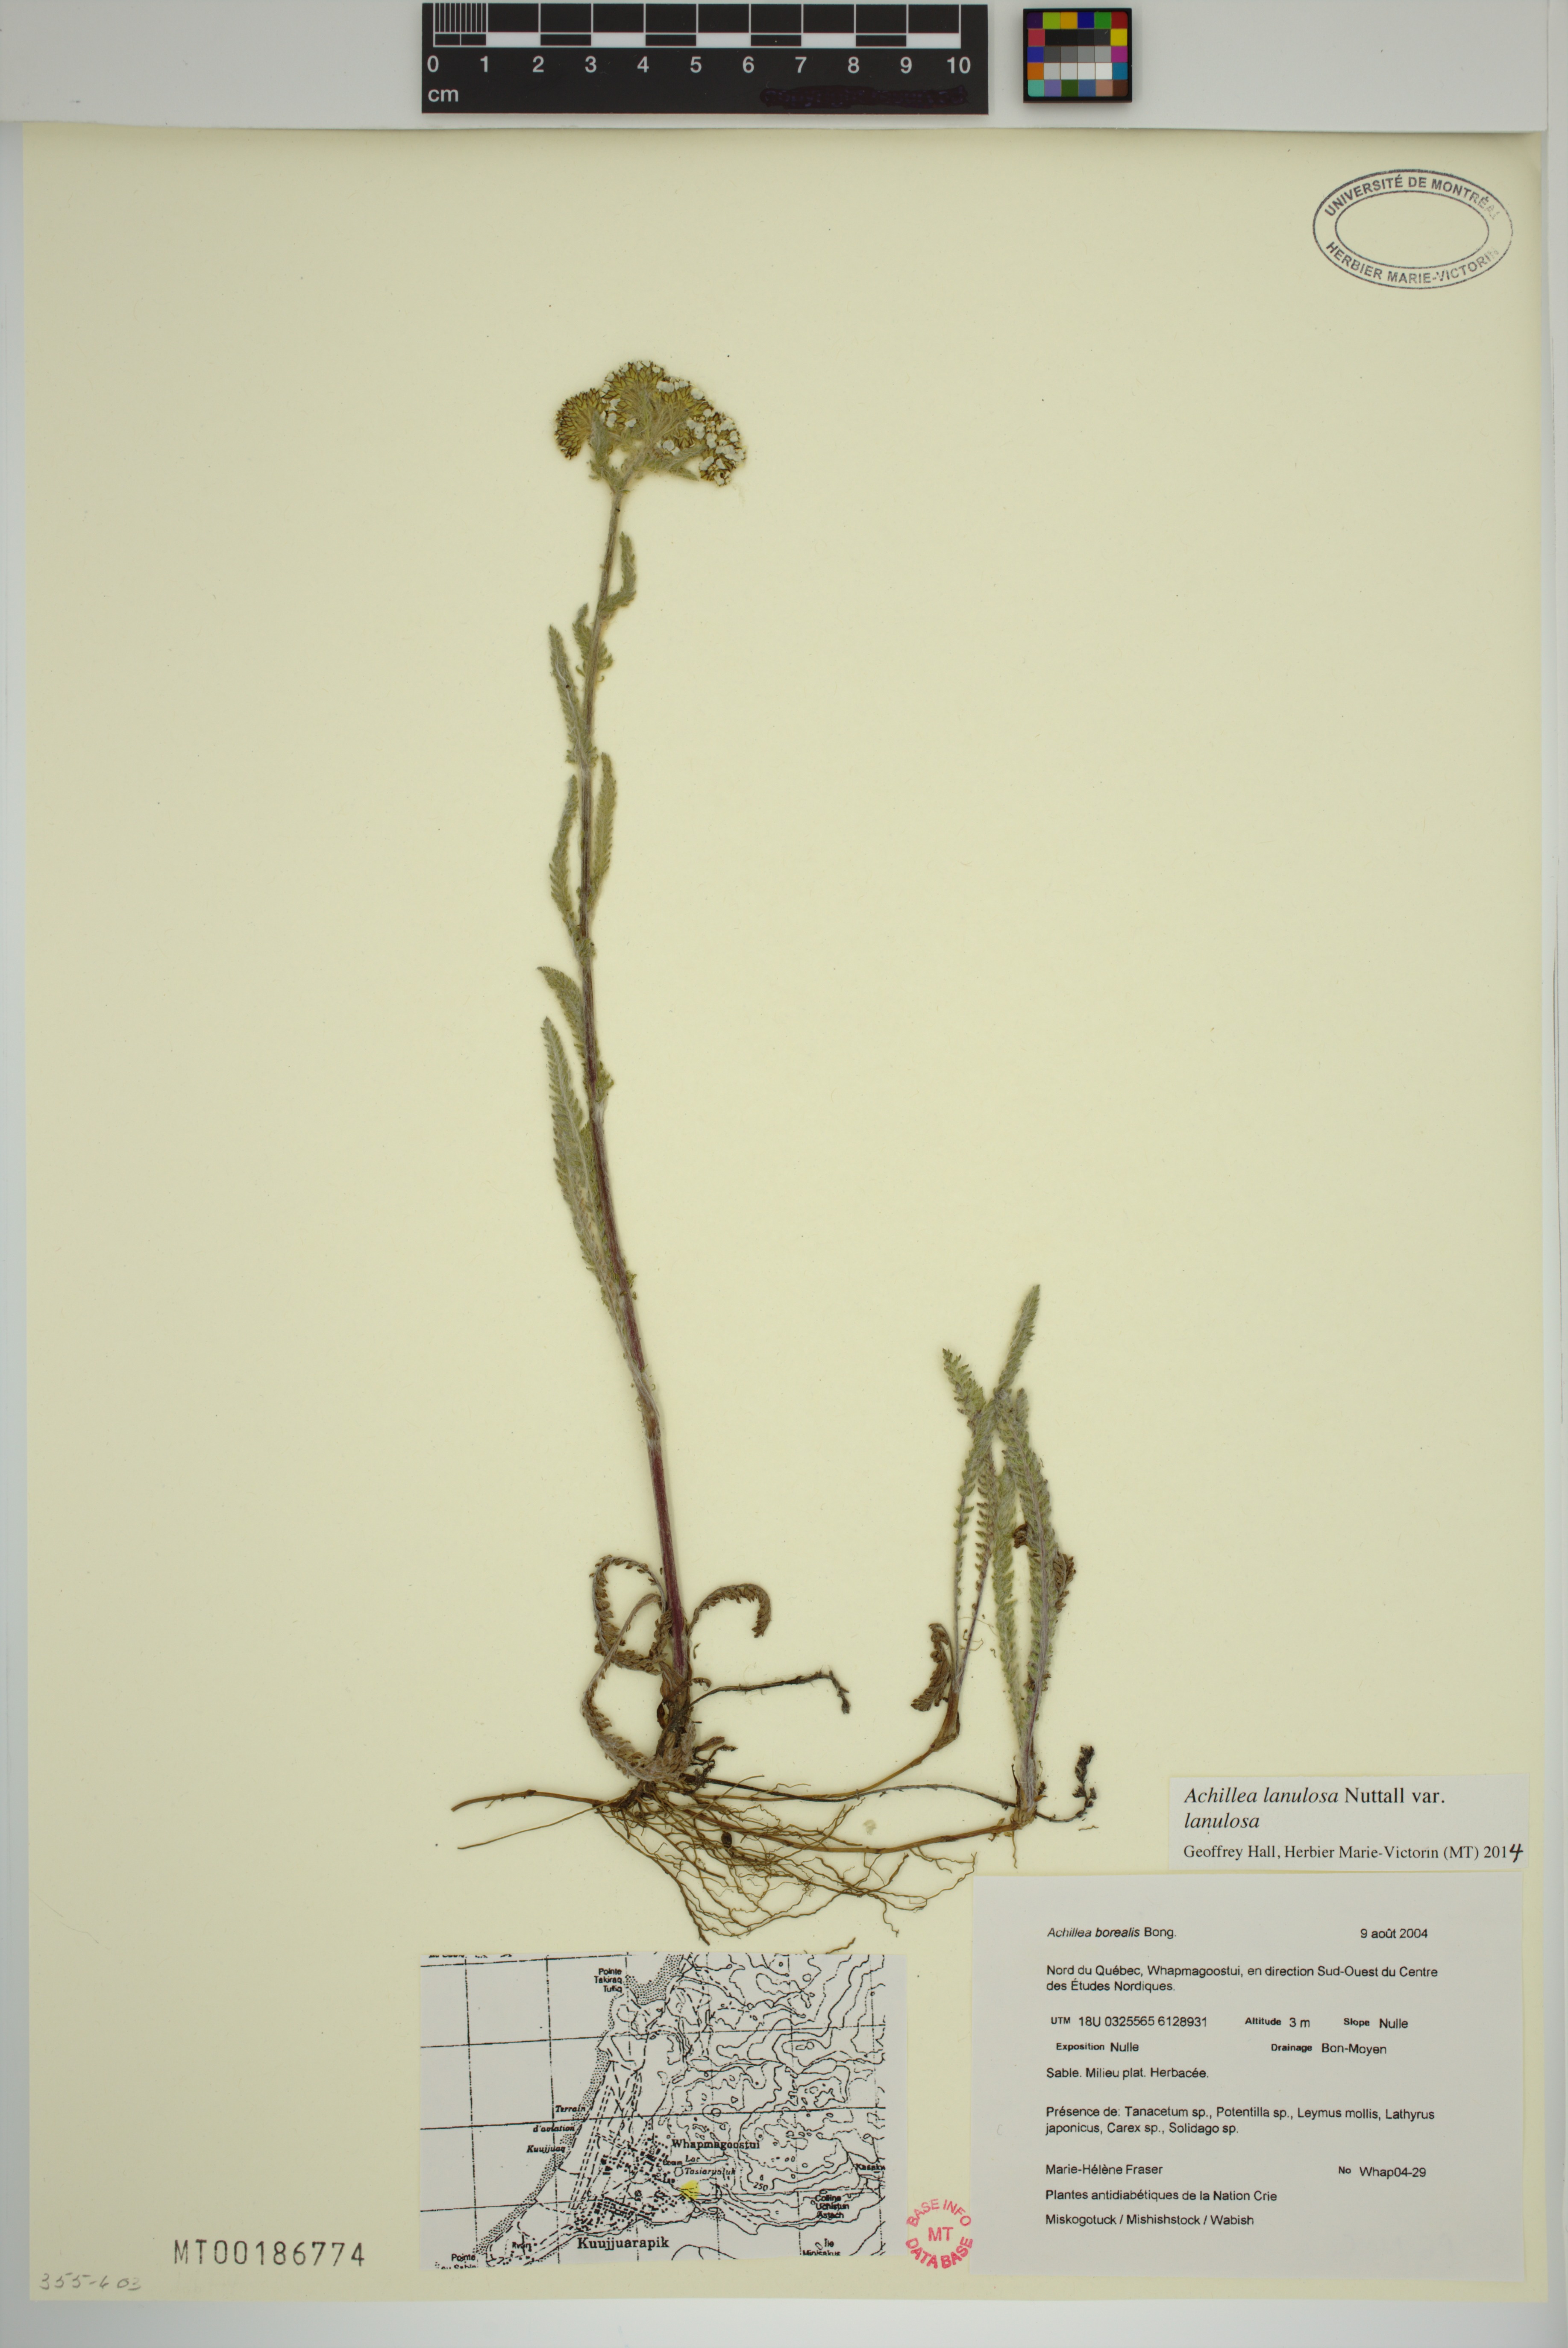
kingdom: Plantae
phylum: Tracheophyta
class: Magnoliopsida
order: Asterales
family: Asteraceae
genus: Achillea
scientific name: Achillea millefolium
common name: Yarrow
